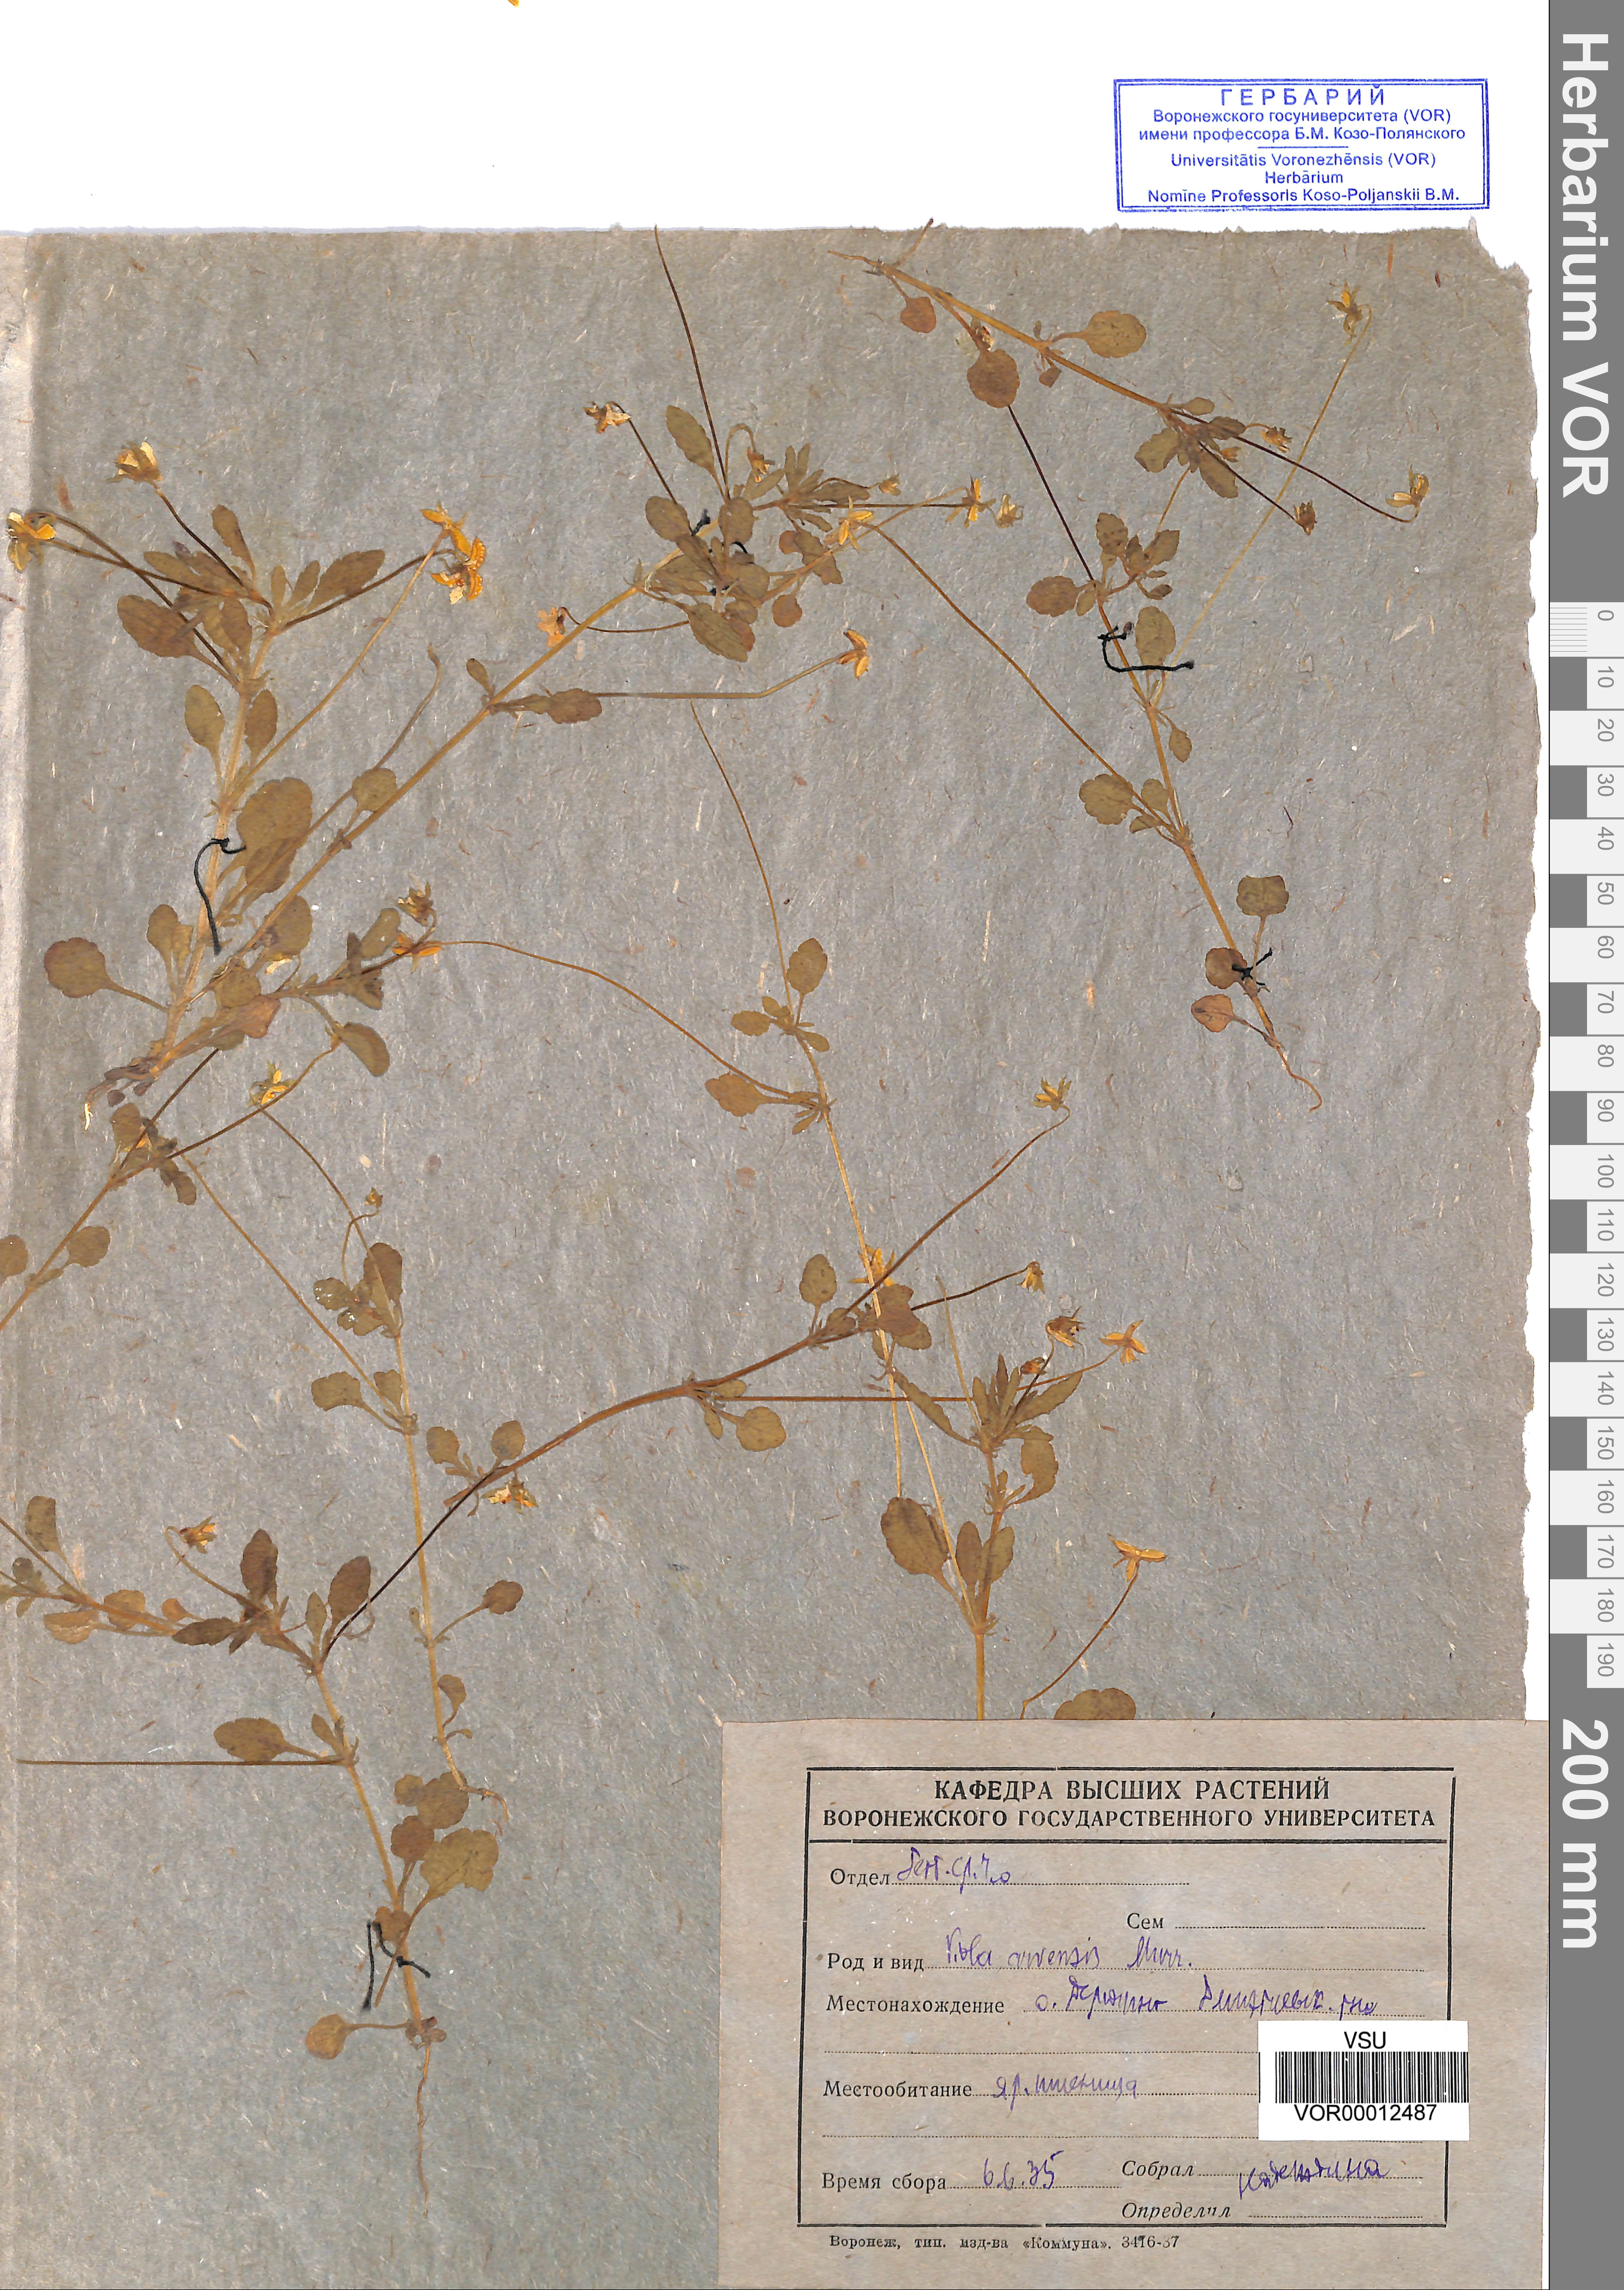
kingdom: Plantae
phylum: Tracheophyta
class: Magnoliopsida
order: Malpighiales
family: Violaceae
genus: Viola
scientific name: Viola arvensis
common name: Field pansy
